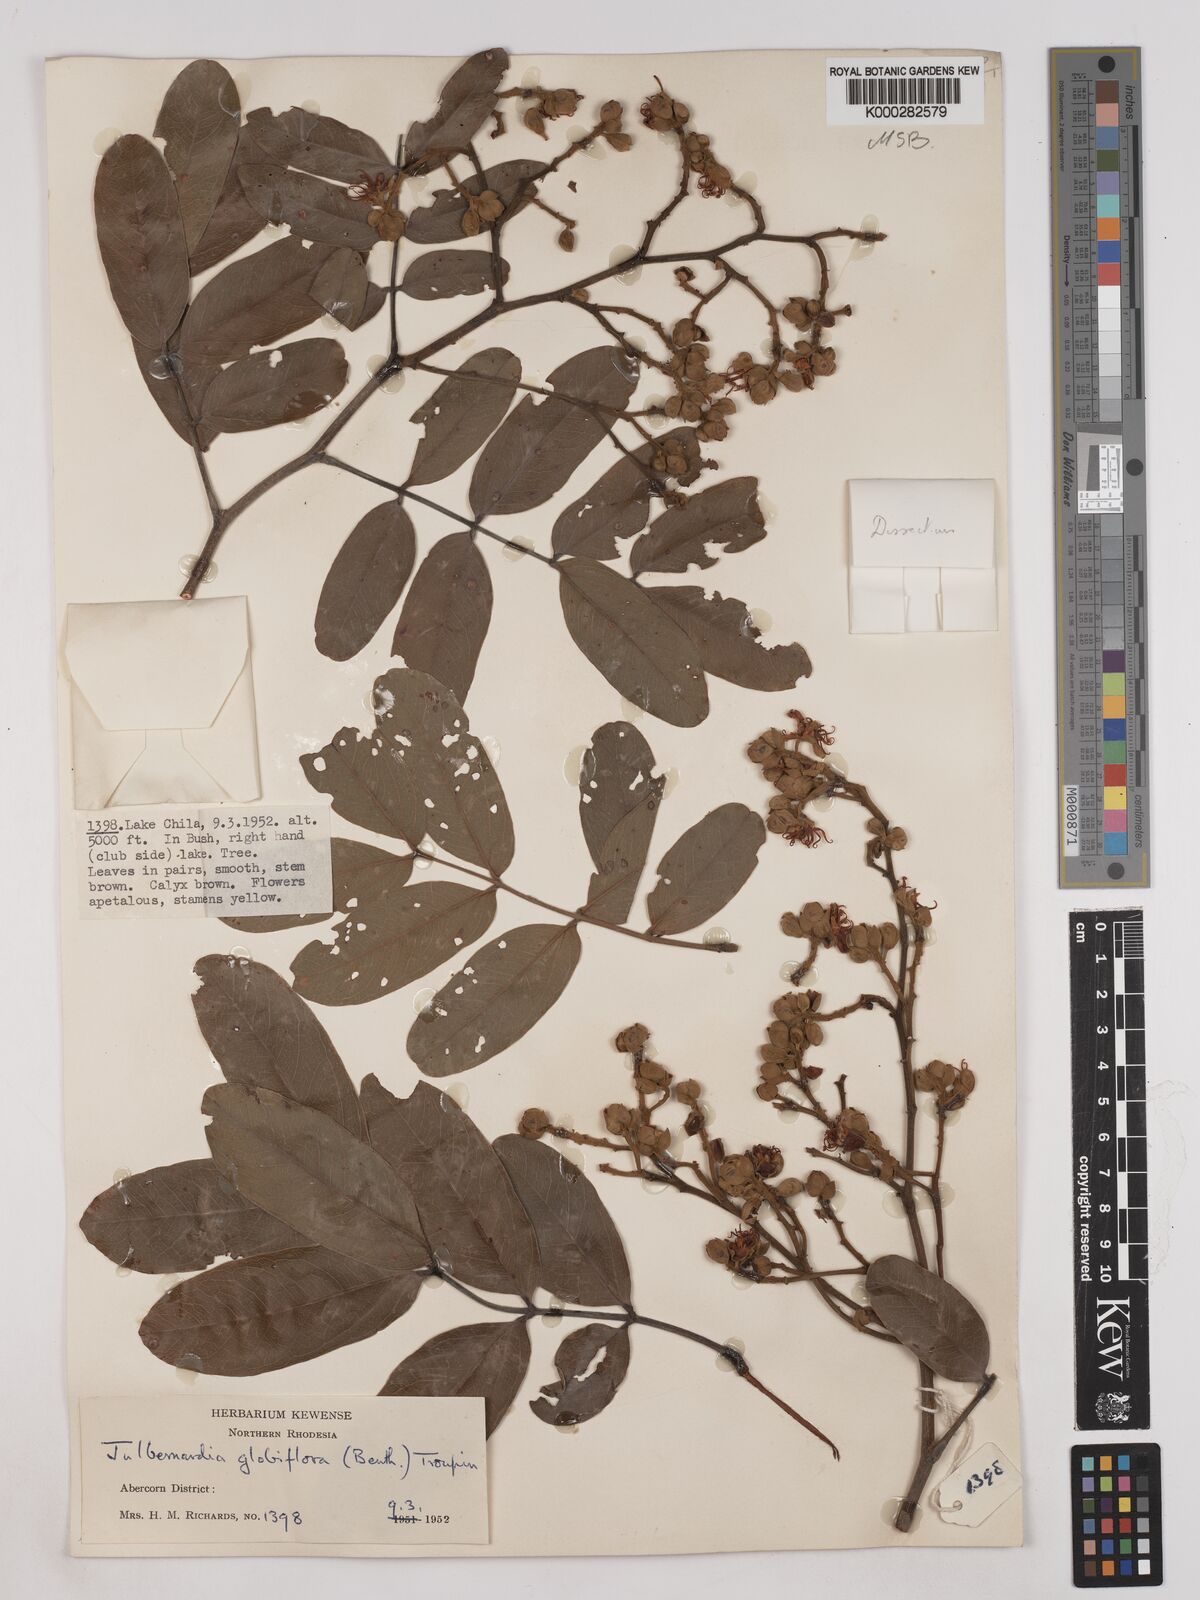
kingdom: Plantae
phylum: Tracheophyta
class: Magnoliopsida
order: Fabales
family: Fabaceae
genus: Julbernardia
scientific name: Julbernardia globiflora
